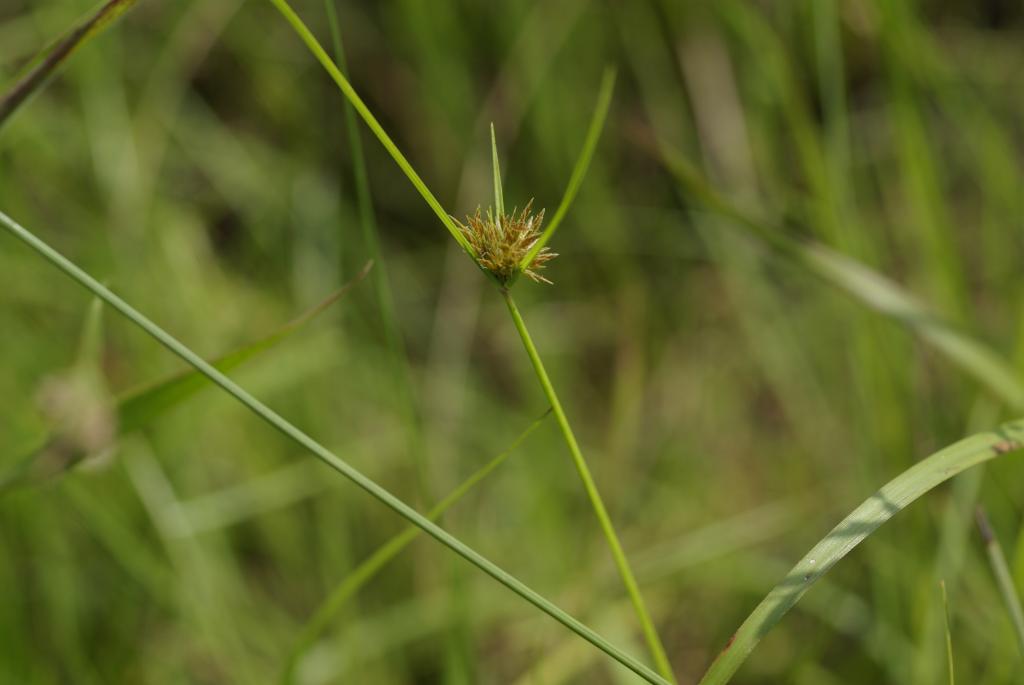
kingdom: Plantae
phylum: Tracheophyta
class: Liliopsida
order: Poales
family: Cyperaceae
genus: Cyperus
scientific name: Cyperus polystachyos
